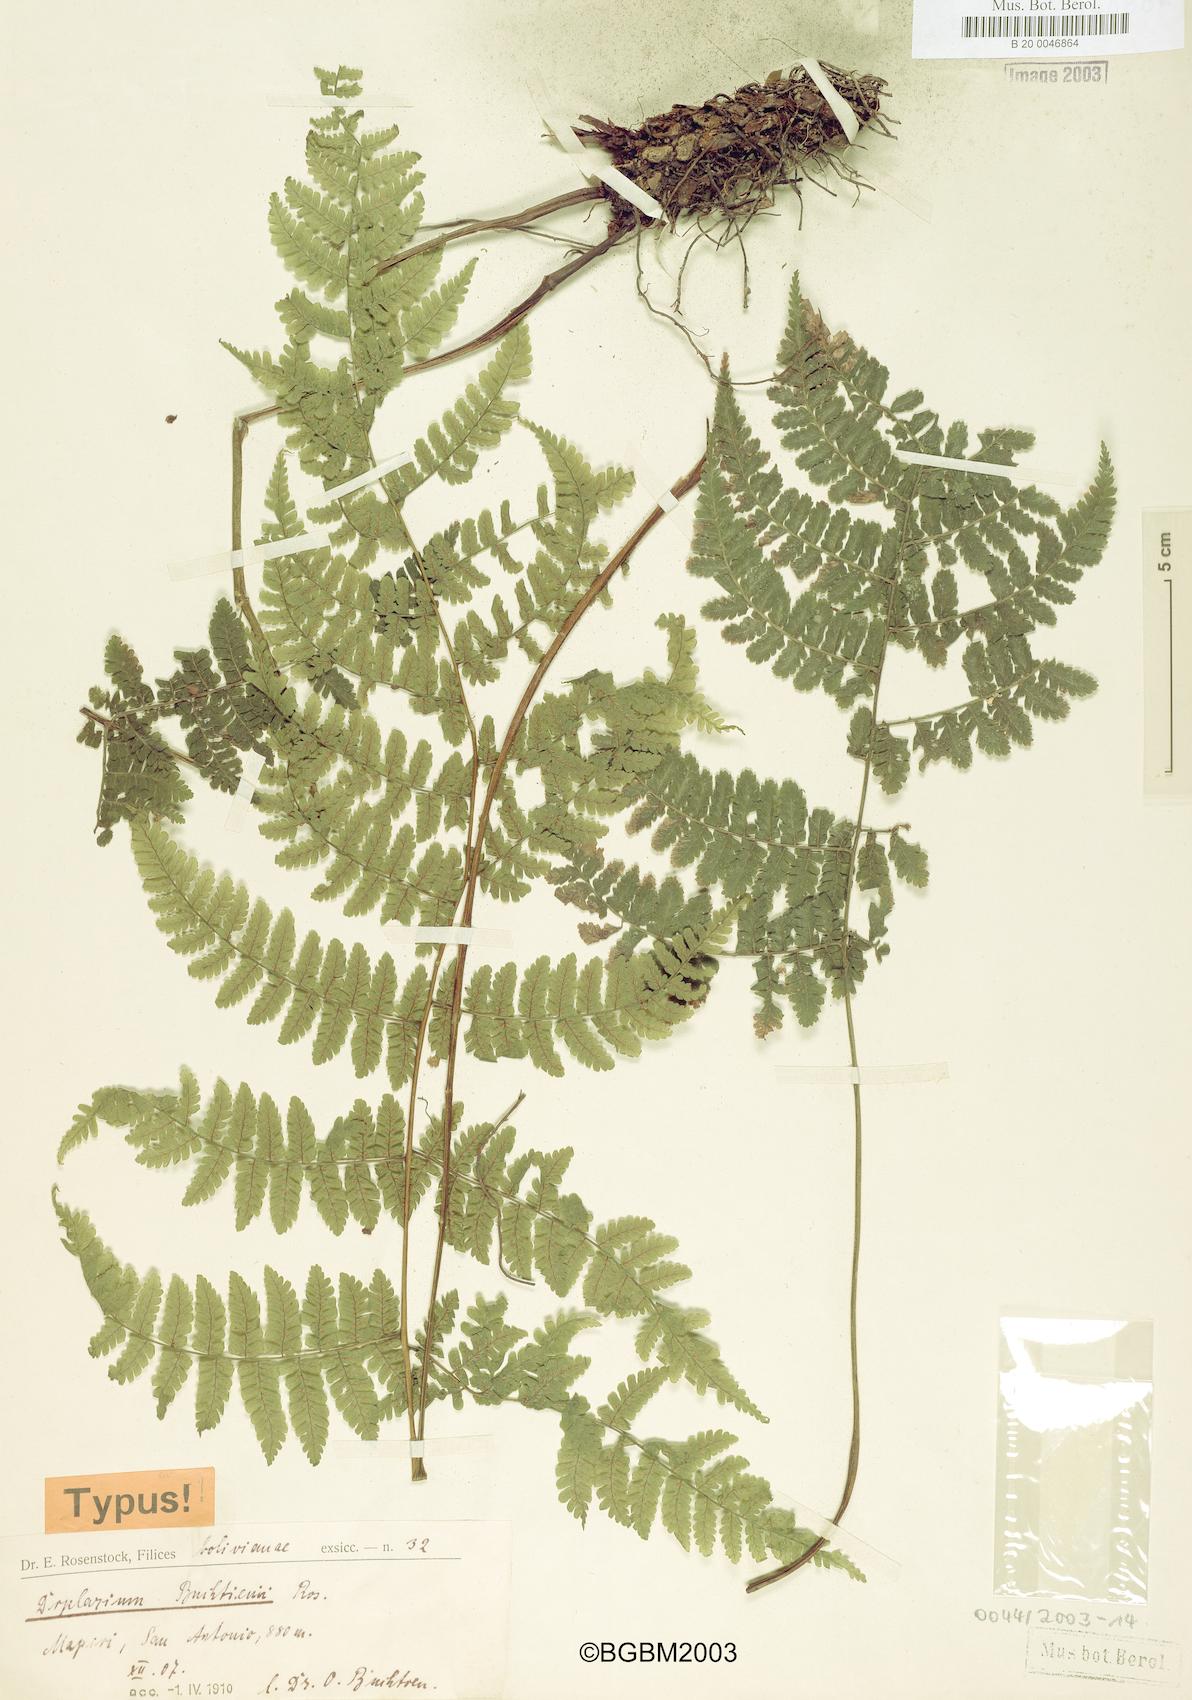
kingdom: Plantae
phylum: Tracheophyta
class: Polypodiopsida
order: Polypodiales
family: Athyriaceae
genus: Diplazium
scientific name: Diplazium buchtienii
